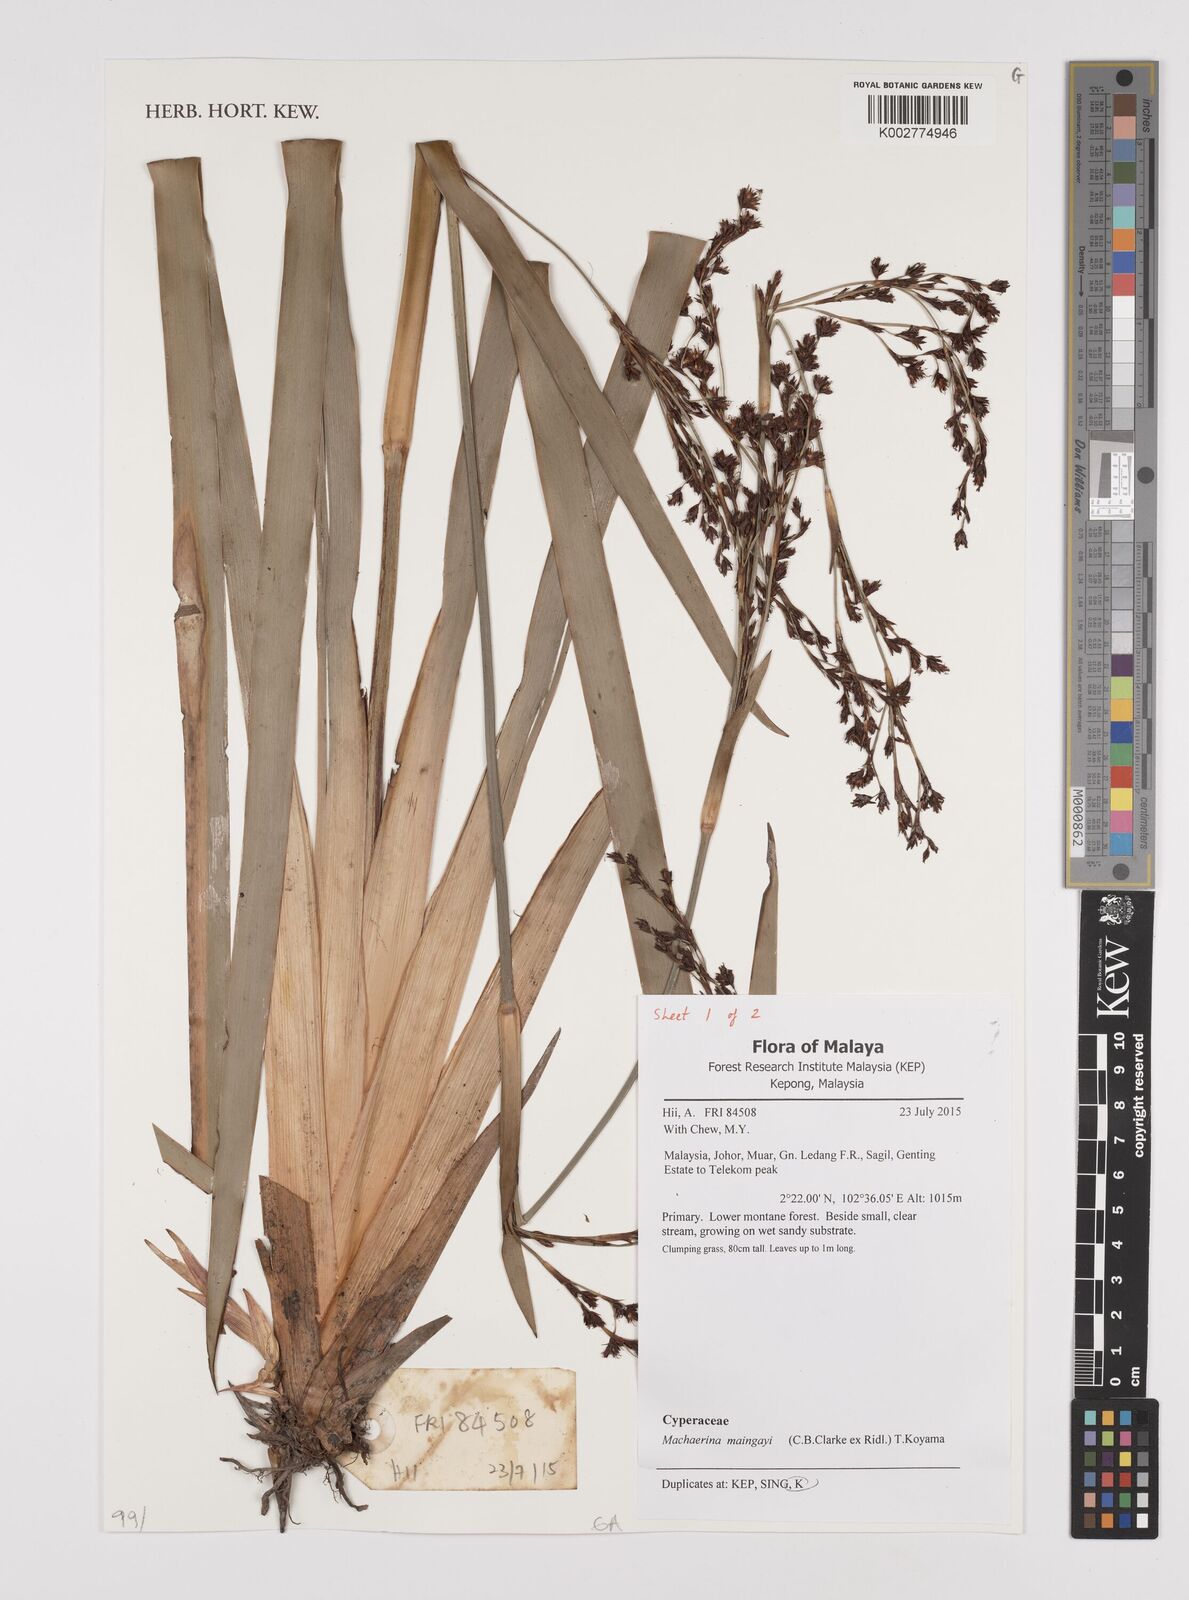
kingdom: Plantae
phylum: Tracheophyta
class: Liliopsida
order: Poales
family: Cyperaceae
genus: Machaerina
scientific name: Machaerina maingayi
